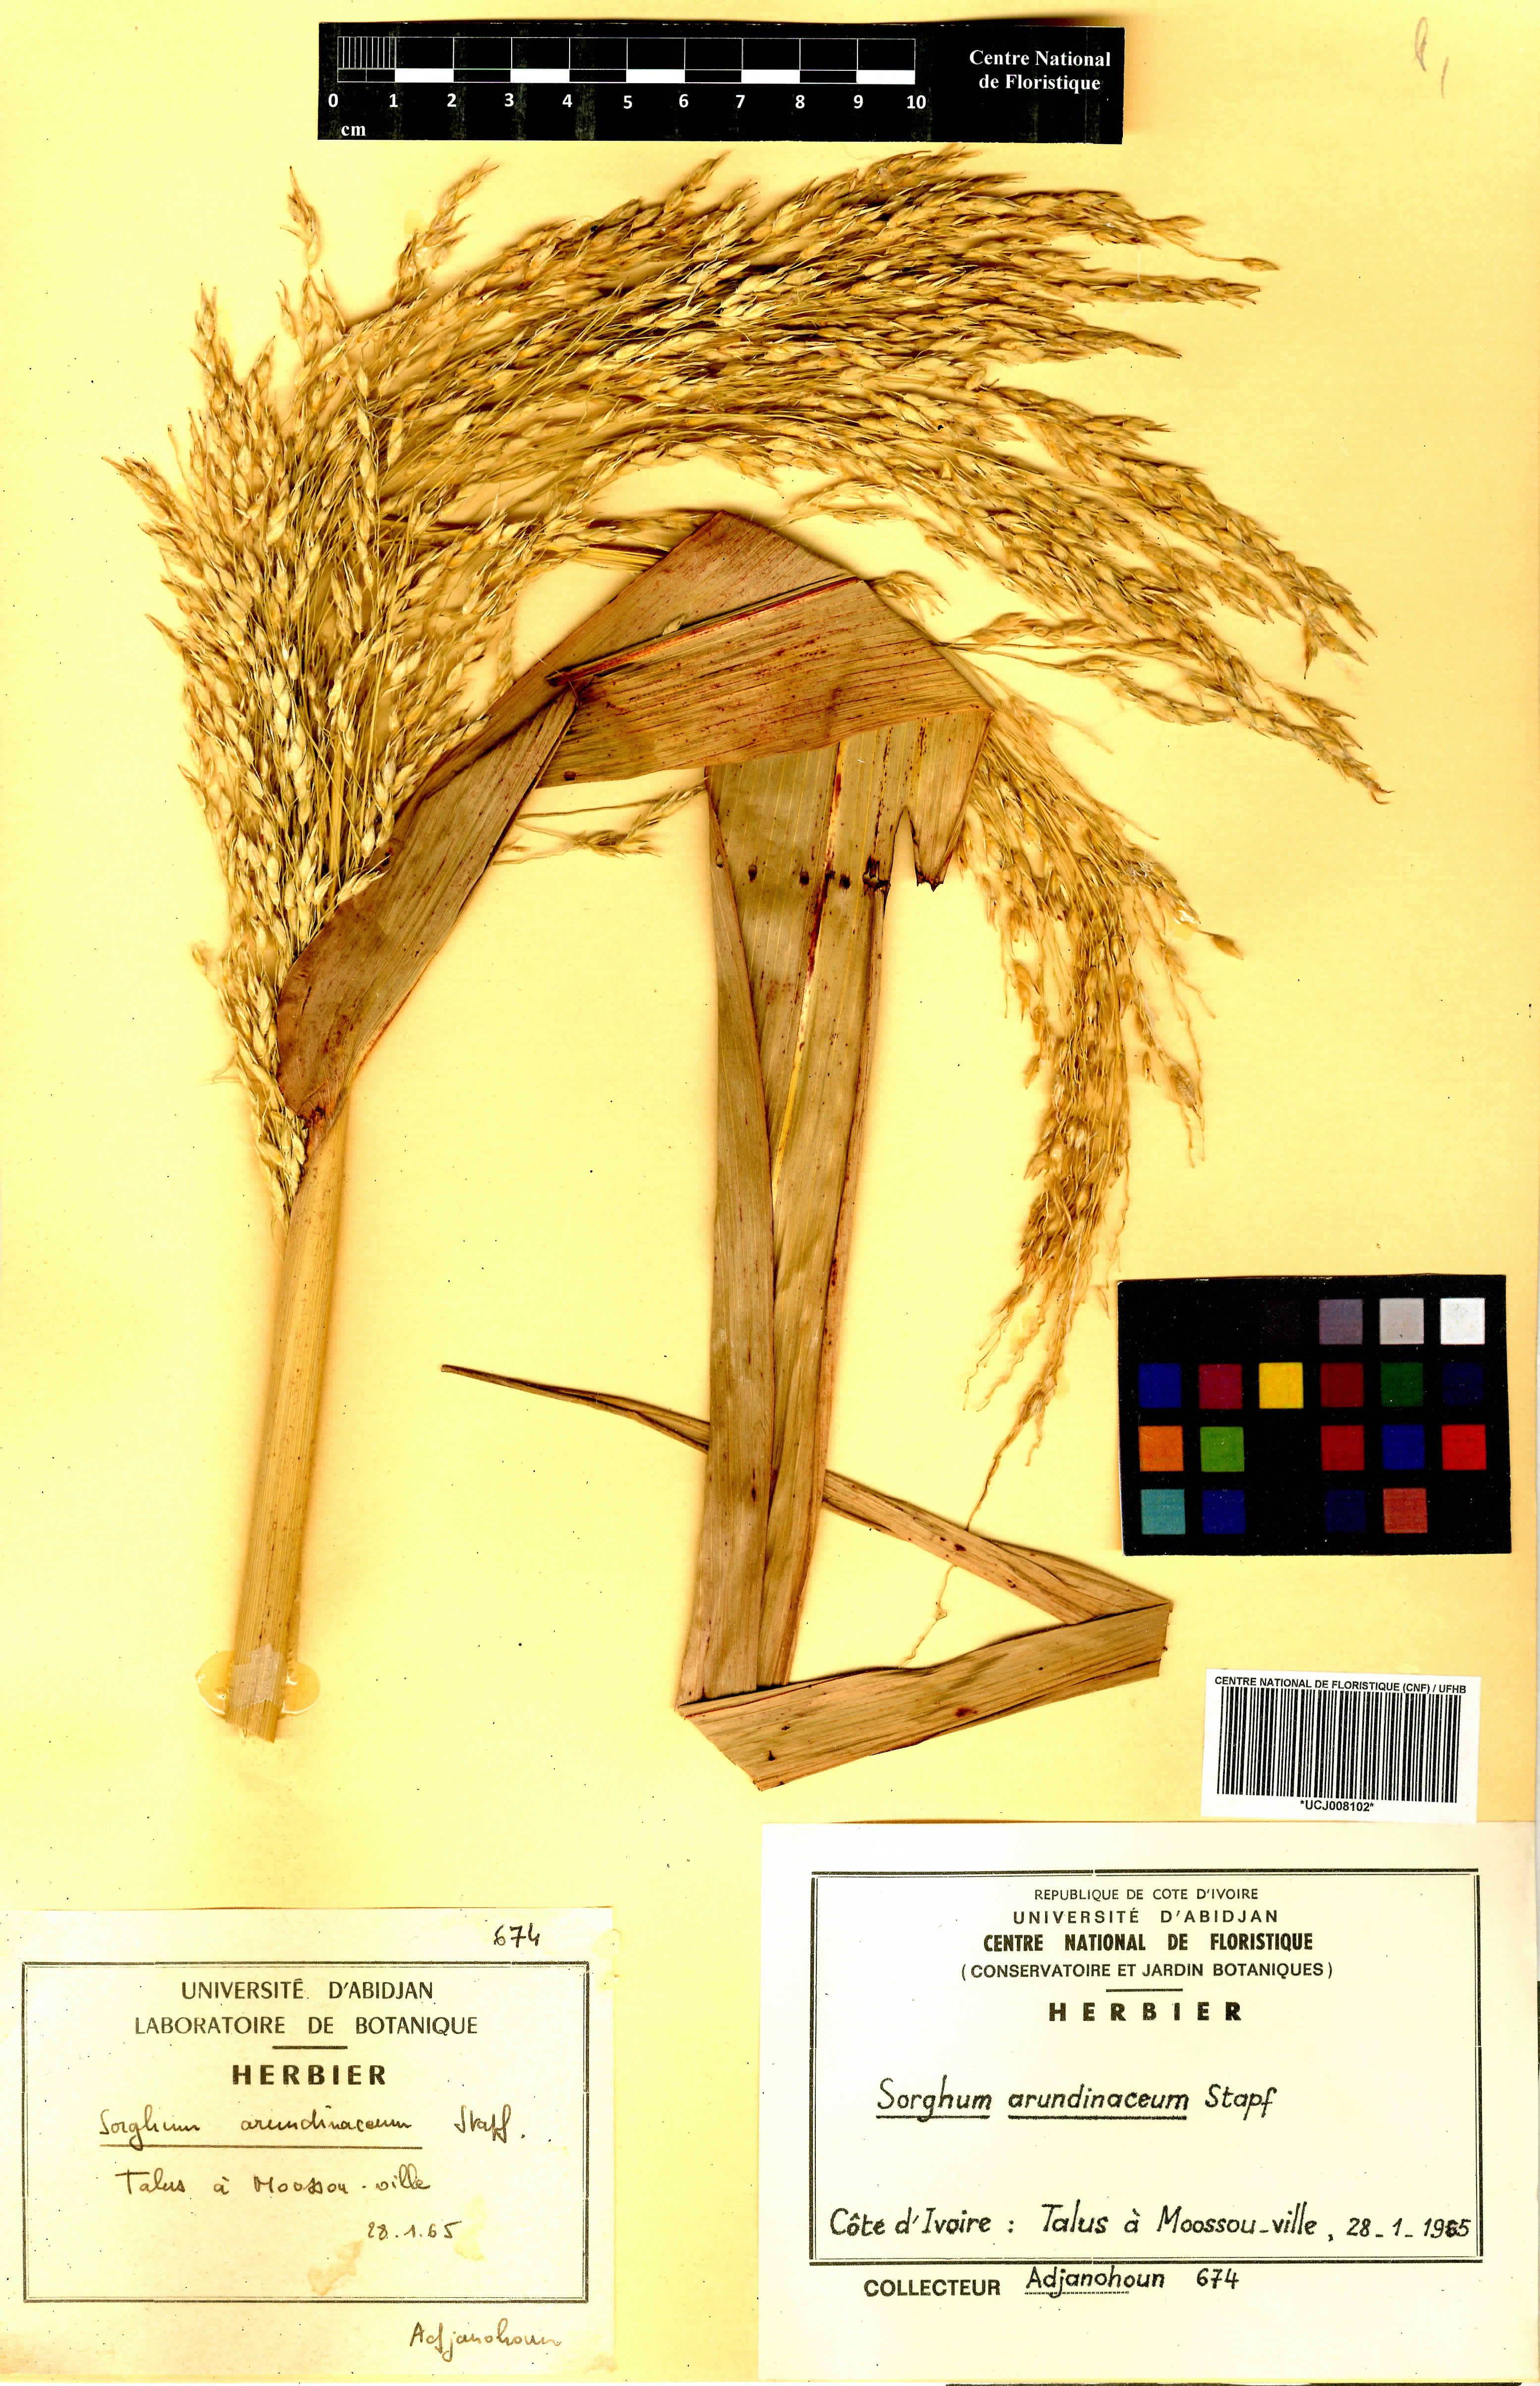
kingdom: Plantae
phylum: Tracheophyta
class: Liliopsida
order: Poales
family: Poaceae
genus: Sorghum
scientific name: Sorghum arundinaceum
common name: Sorghum
